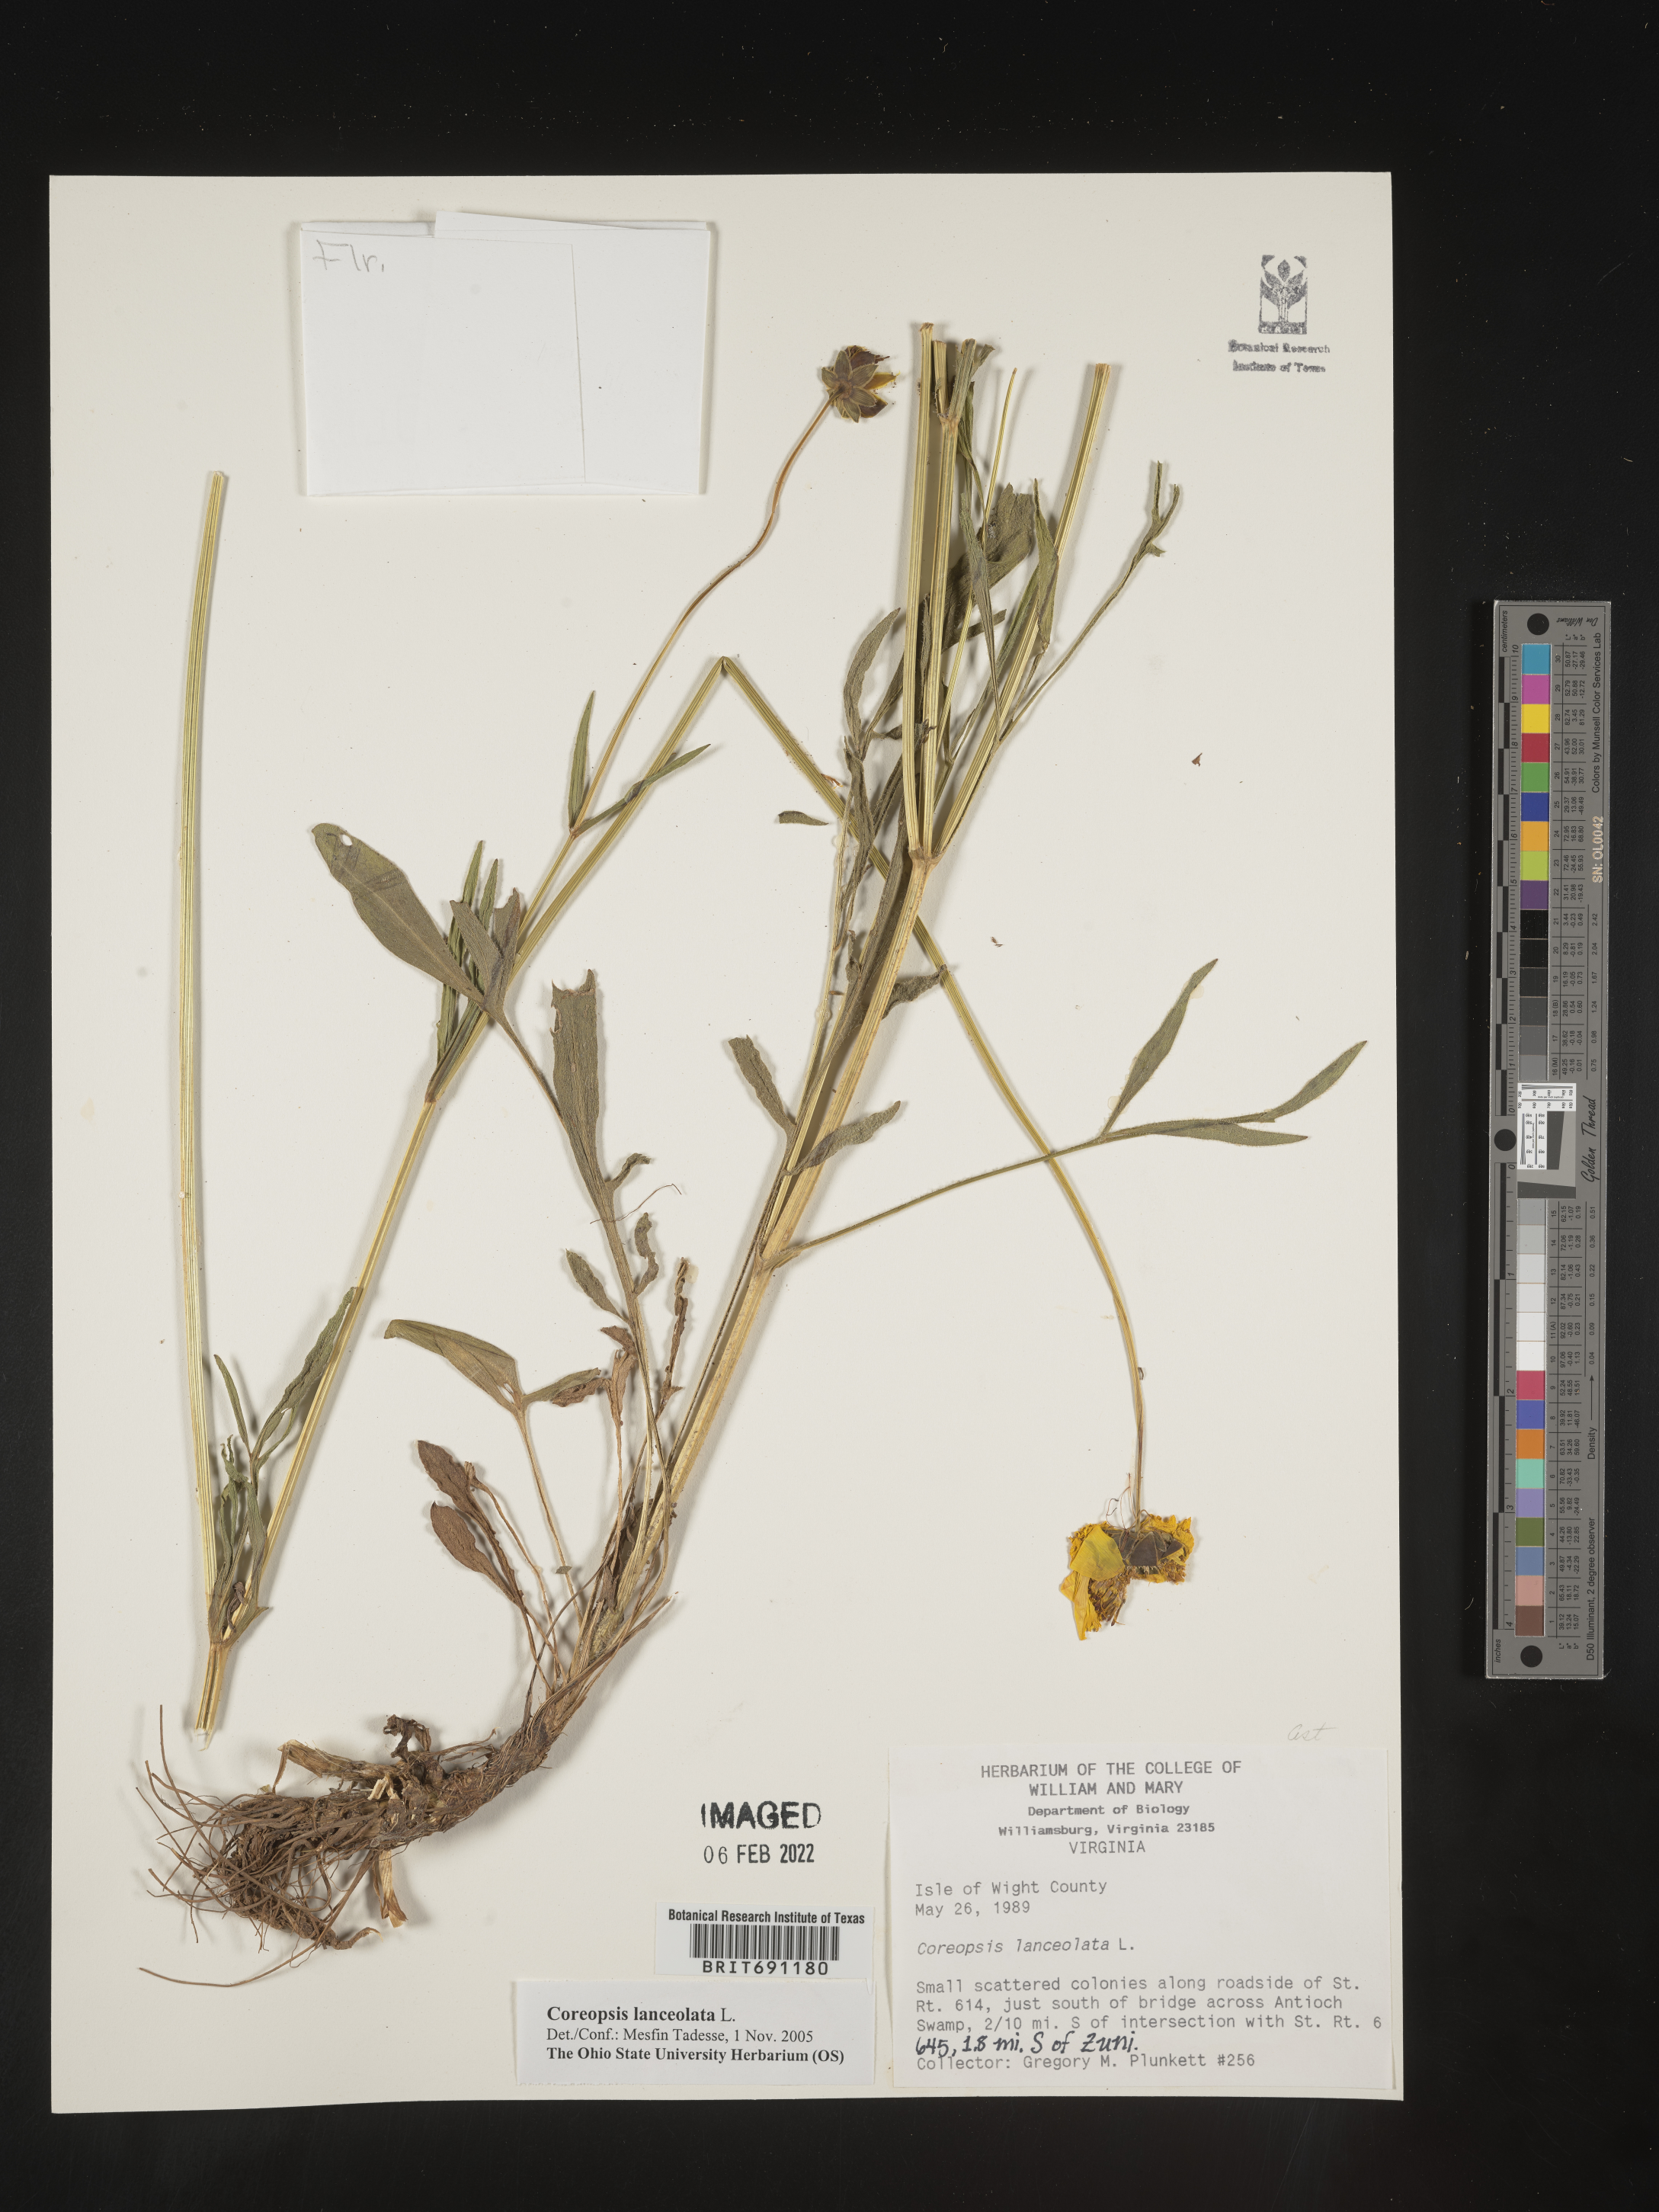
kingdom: Plantae
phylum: Tracheophyta
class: Magnoliopsida
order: Asterales
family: Asteraceae
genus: Coreopsis
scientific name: Coreopsis lanceolata
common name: Garden coreopsis
